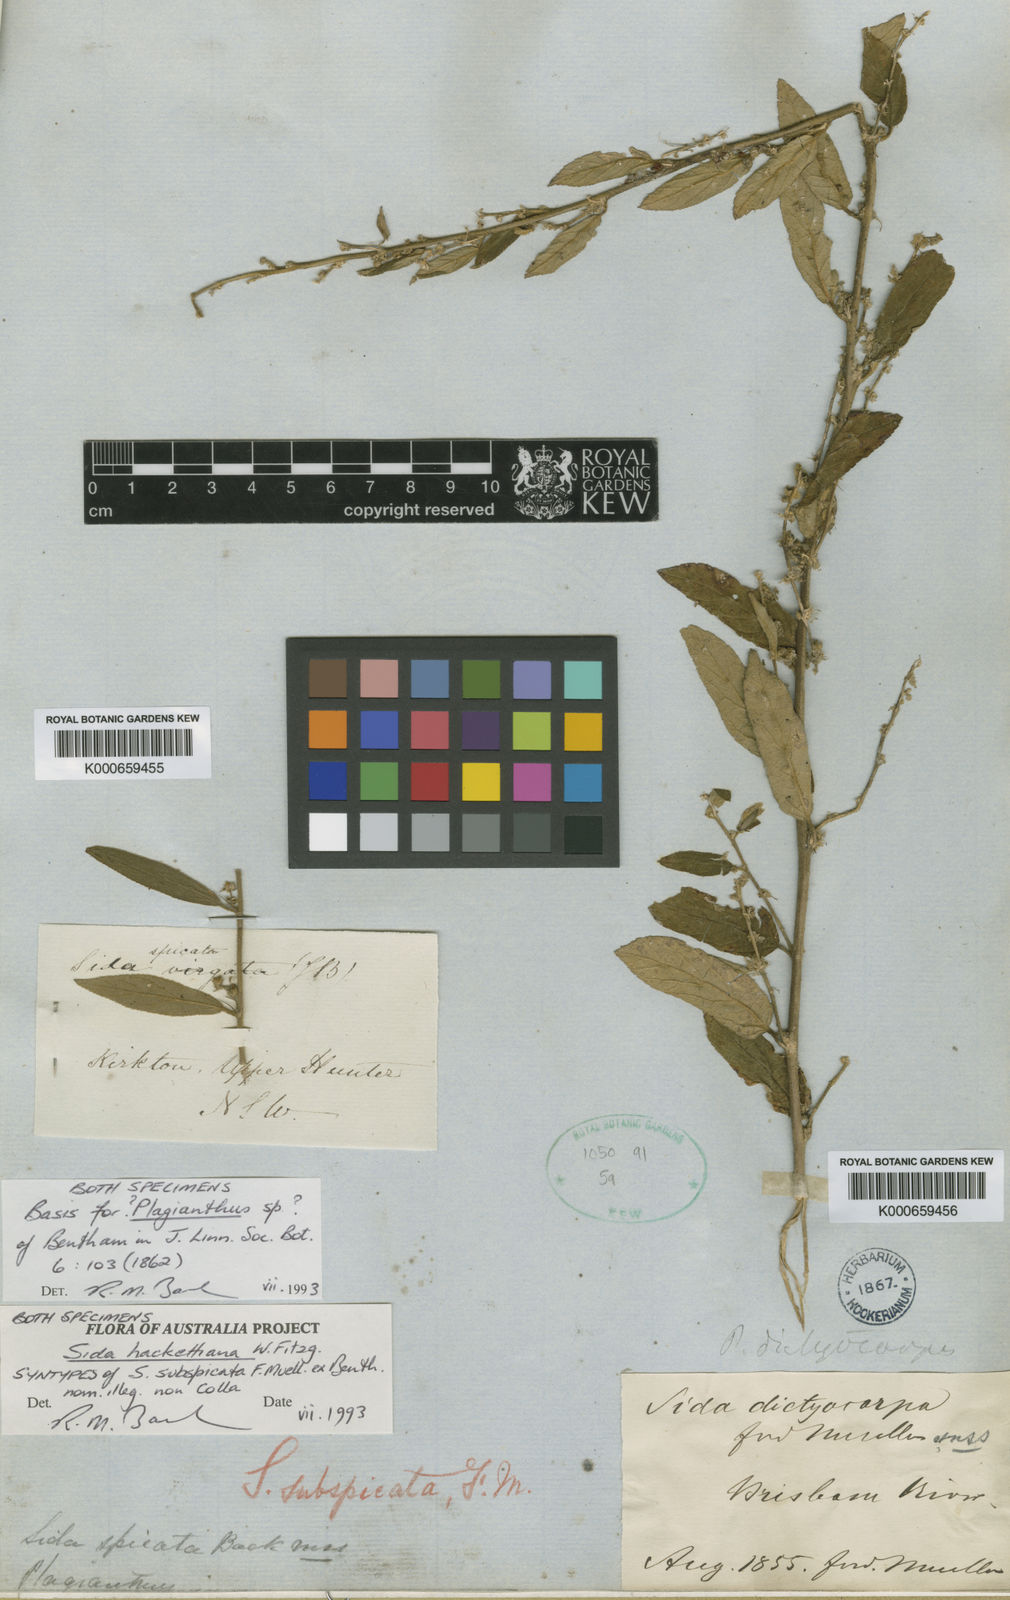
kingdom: Plantae
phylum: Tracheophyta
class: Magnoliopsida
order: Malvales
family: Malvaceae
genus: Sida
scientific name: Sida hackettiana
